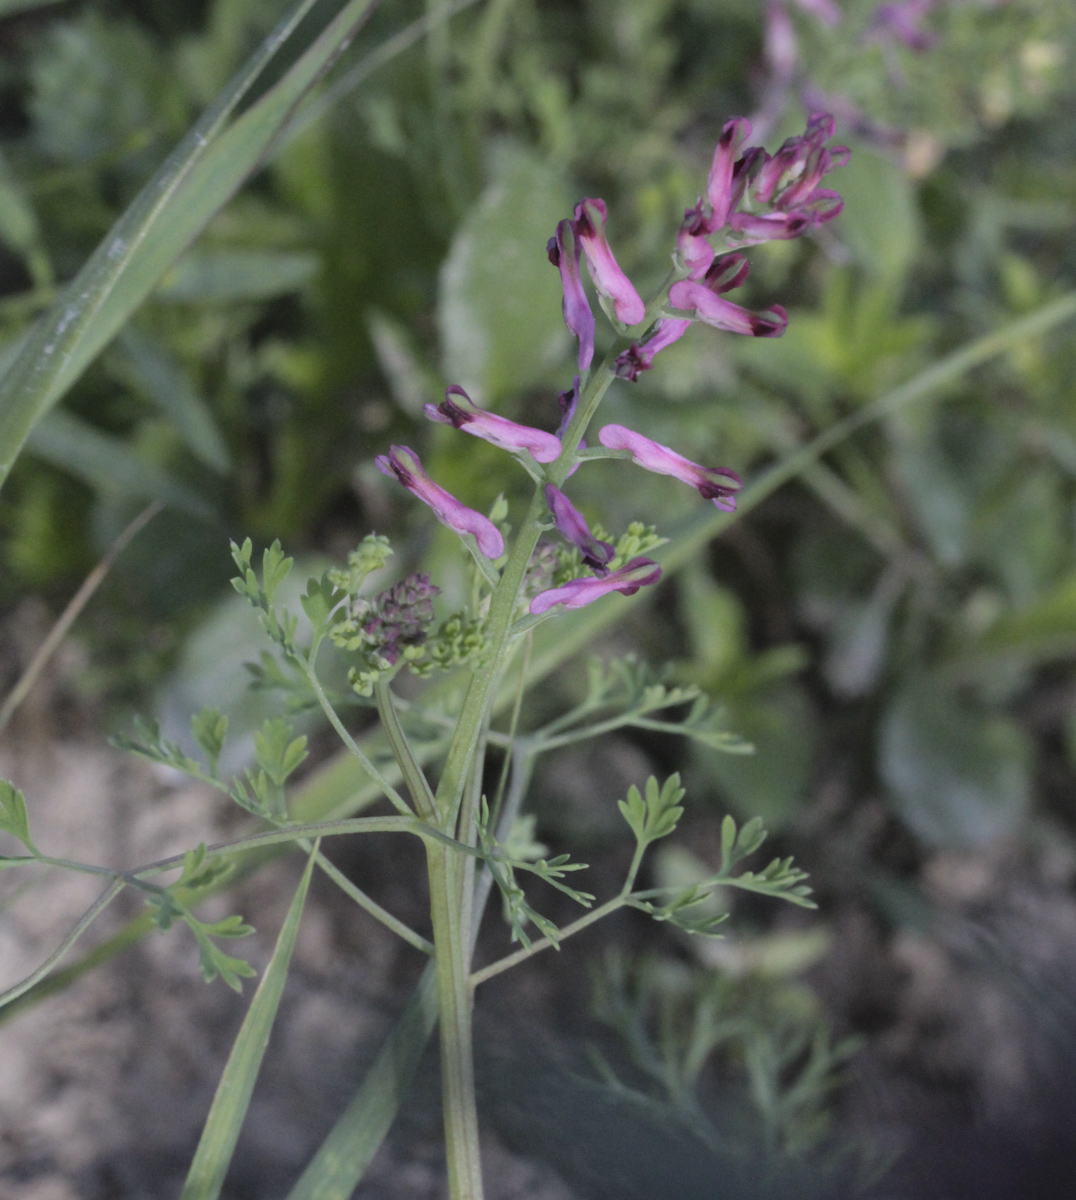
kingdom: Plantae
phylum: Tracheophyta
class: Magnoliopsida
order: Ranunculales
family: Papaveraceae
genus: Fumaria
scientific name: Fumaria officinalis
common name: Common fumitory
